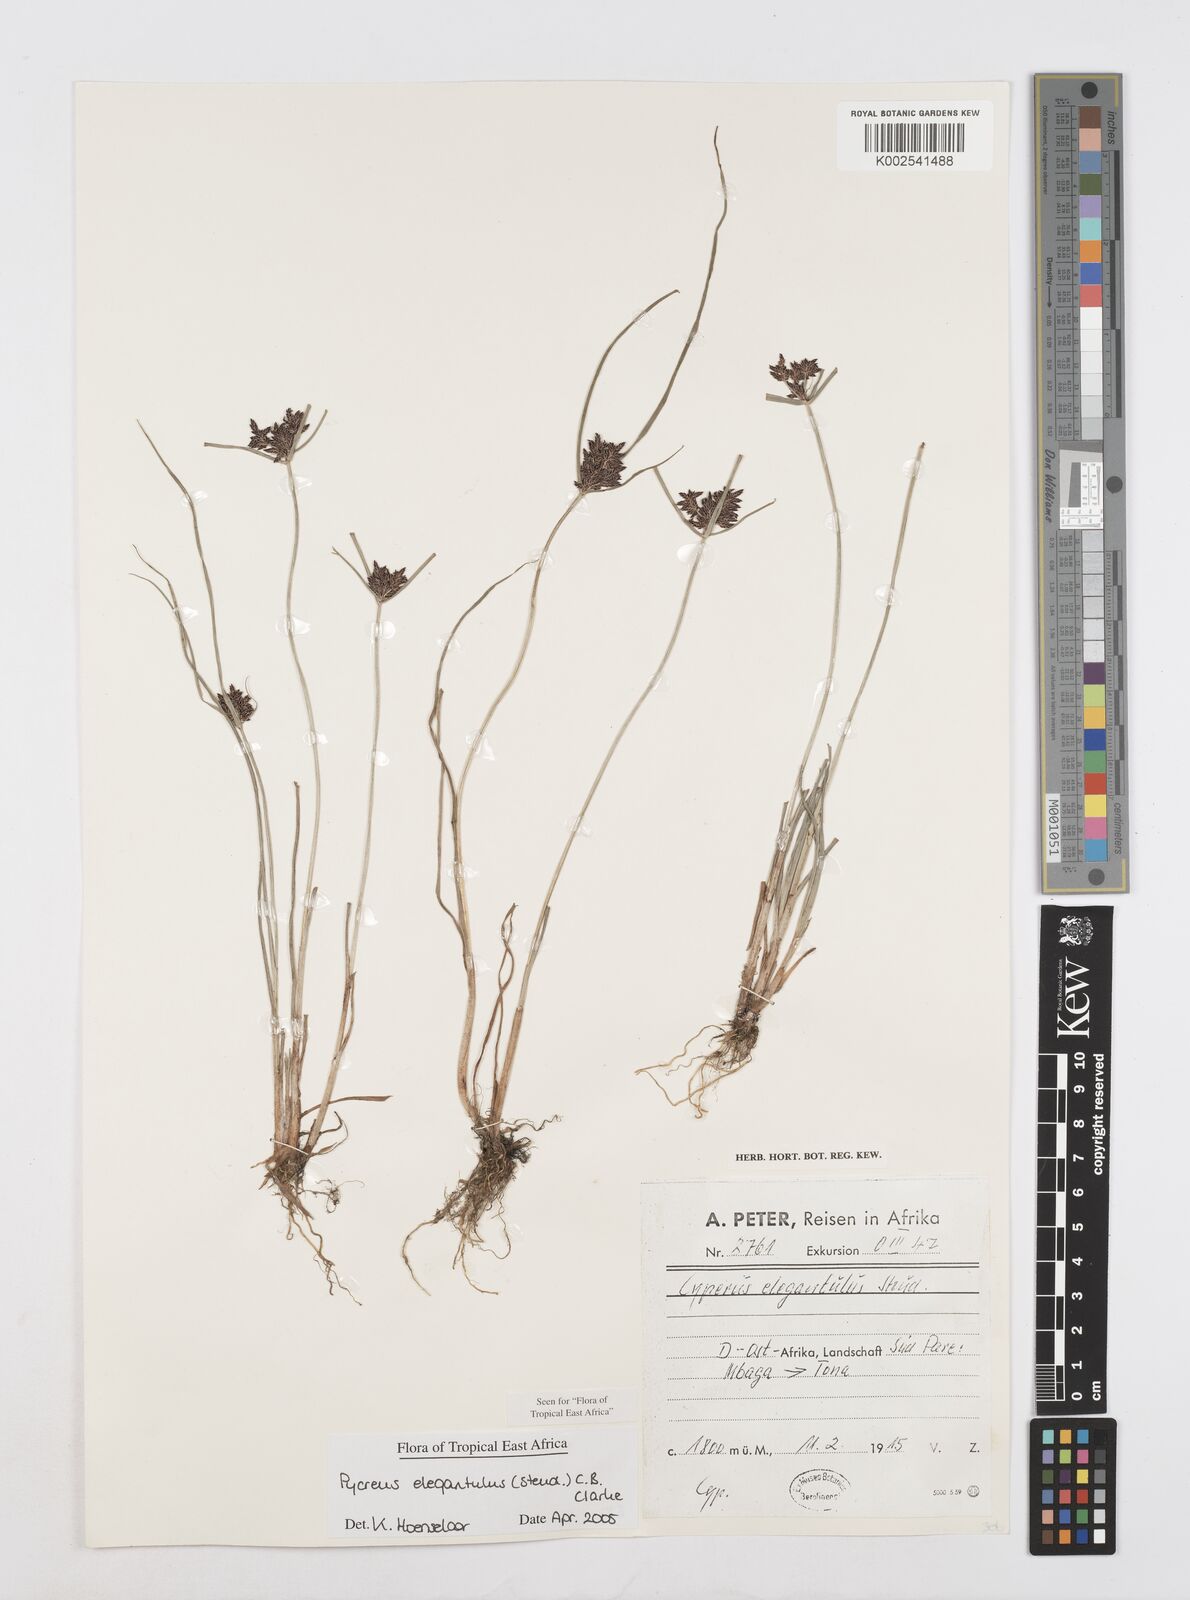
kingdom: Plantae
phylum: Tracheophyta
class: Liliopsida
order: Poales
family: Cyperaceae
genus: Cyperus
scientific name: Cyperus elegantulus
